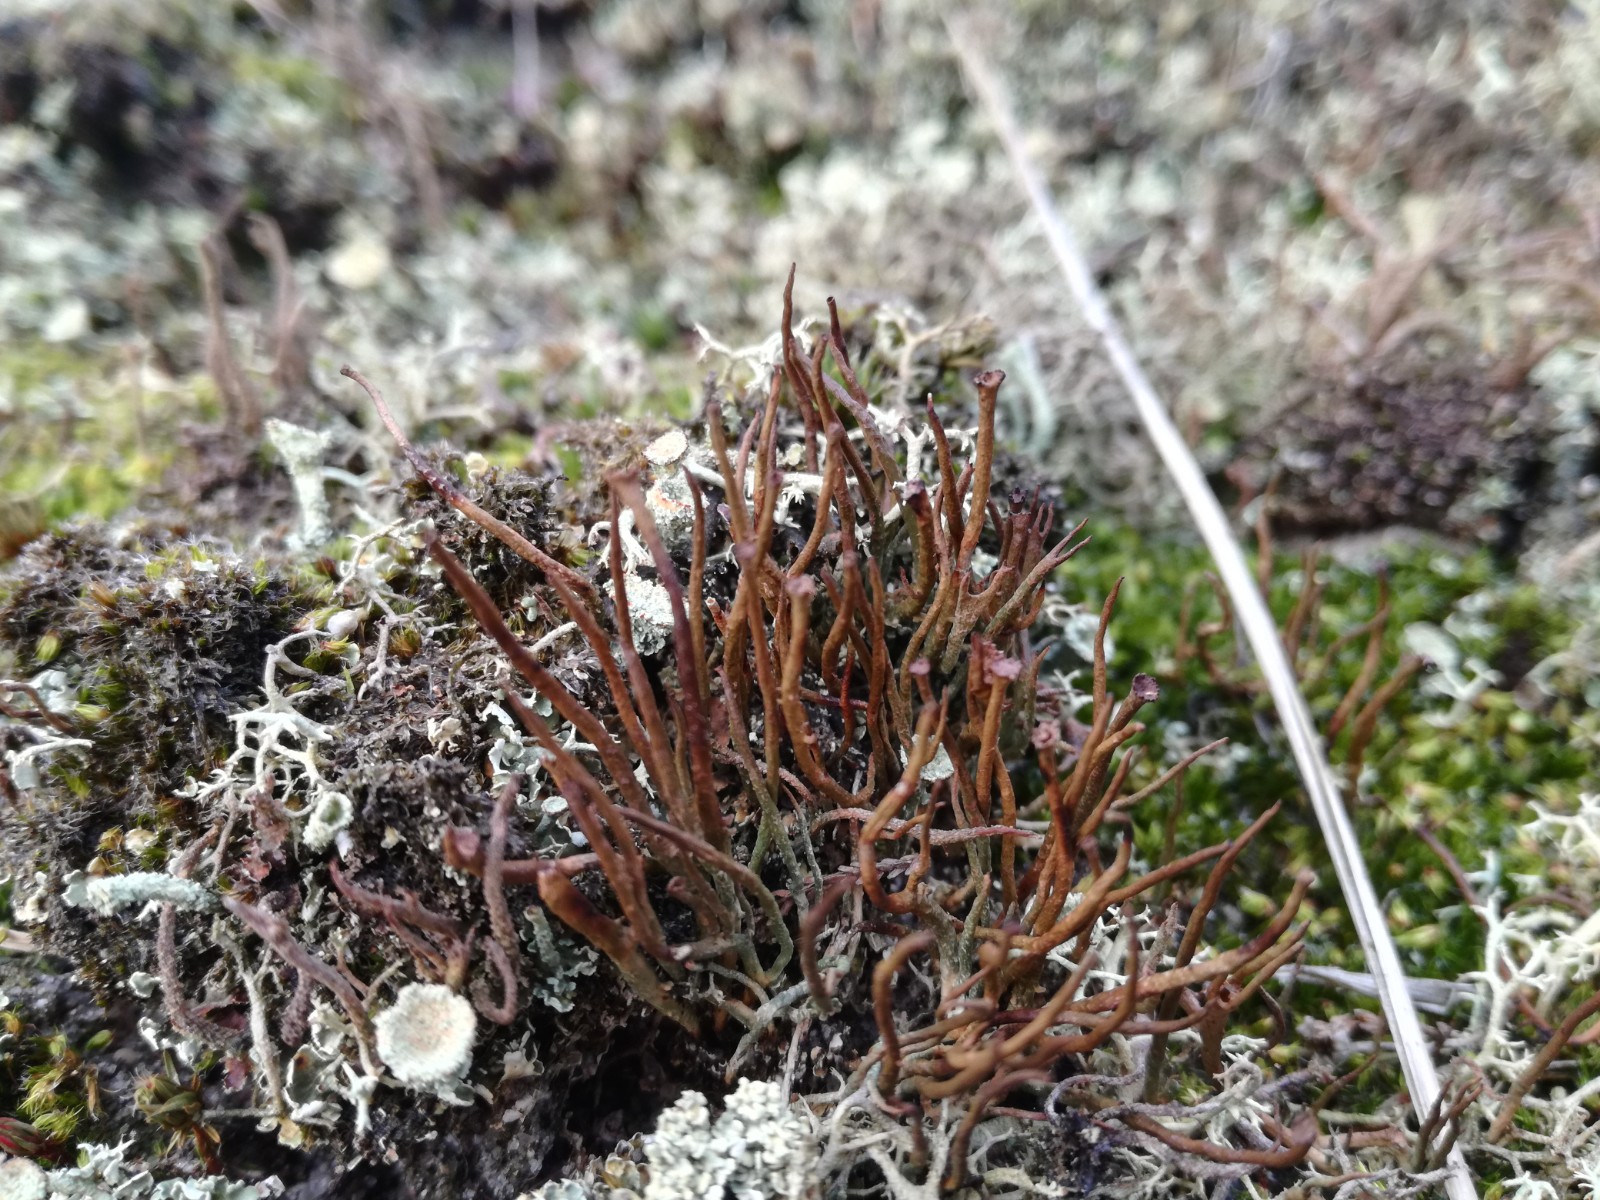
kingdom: Fungi
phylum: Ascomycota
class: Lecanoromycetes
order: Lecanorales
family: Cladoniaceae
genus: Cladonia
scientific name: Cladonia gracilis
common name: slank bægerlav
